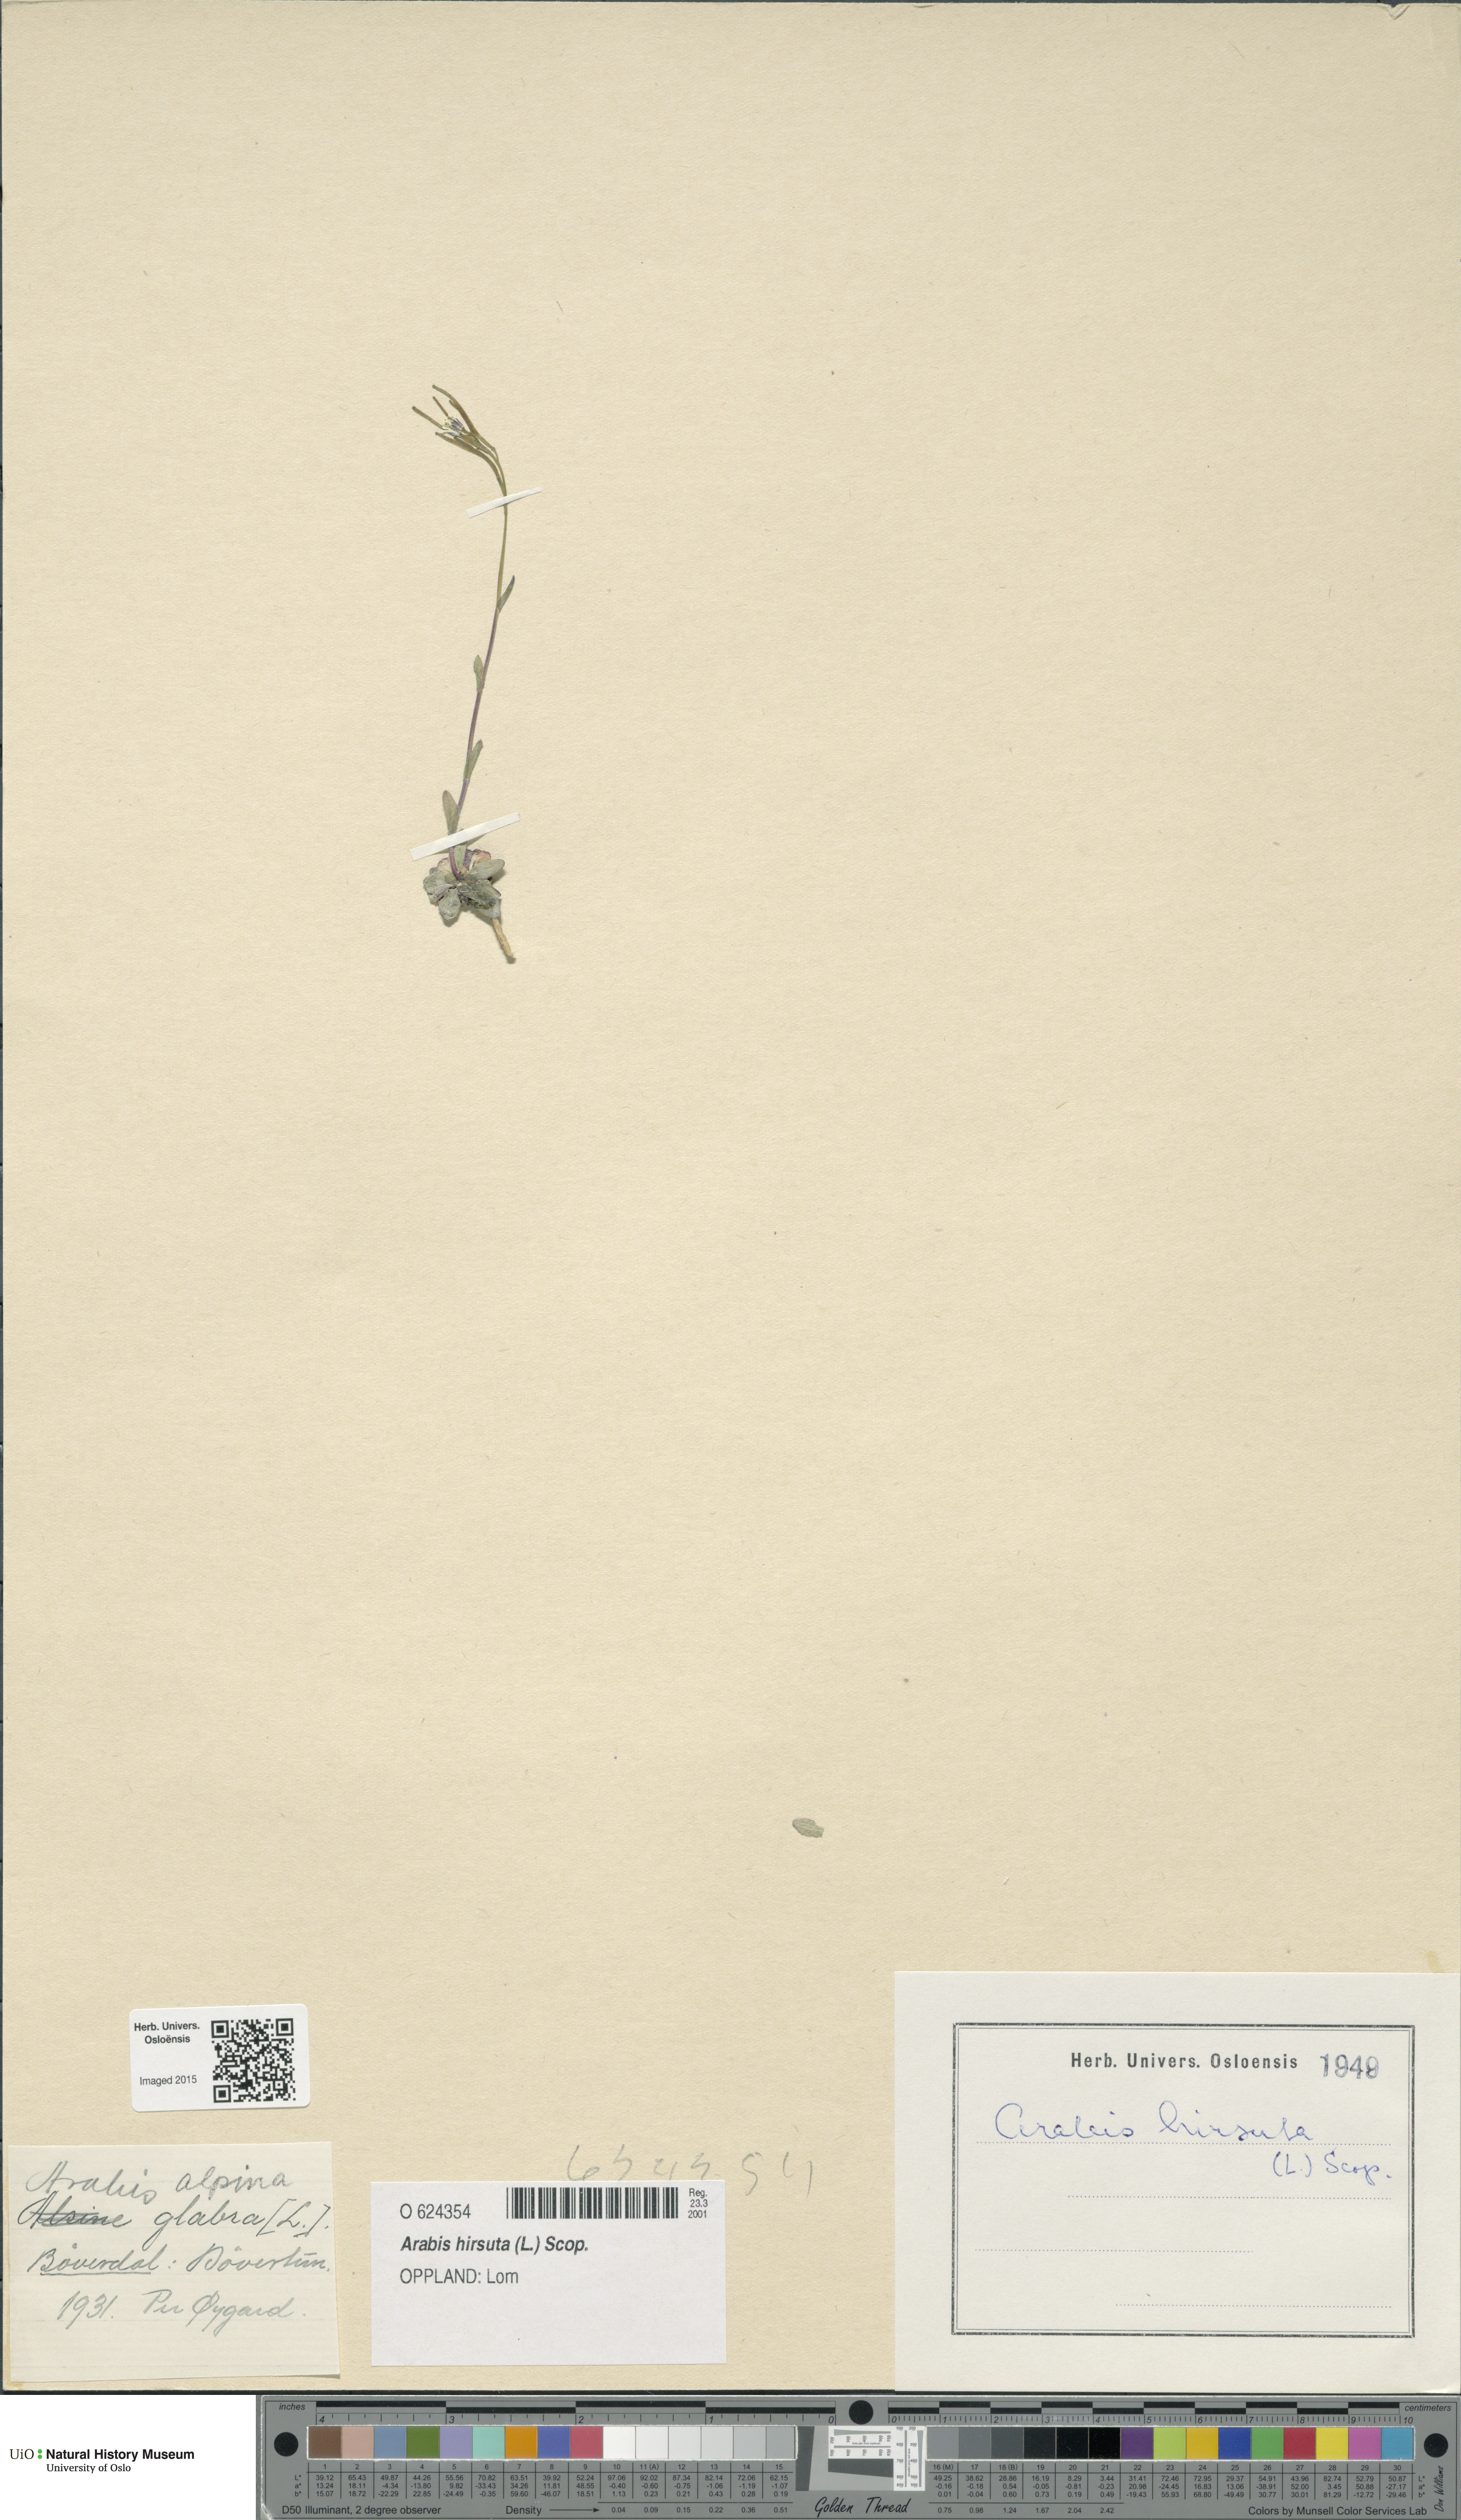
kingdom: Plantae
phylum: Tracheophyta
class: Magnoliopsida
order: Brassicales
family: Brassicaceae
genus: Arabis
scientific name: Arabis hirsuta
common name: Hairy rock-cress
